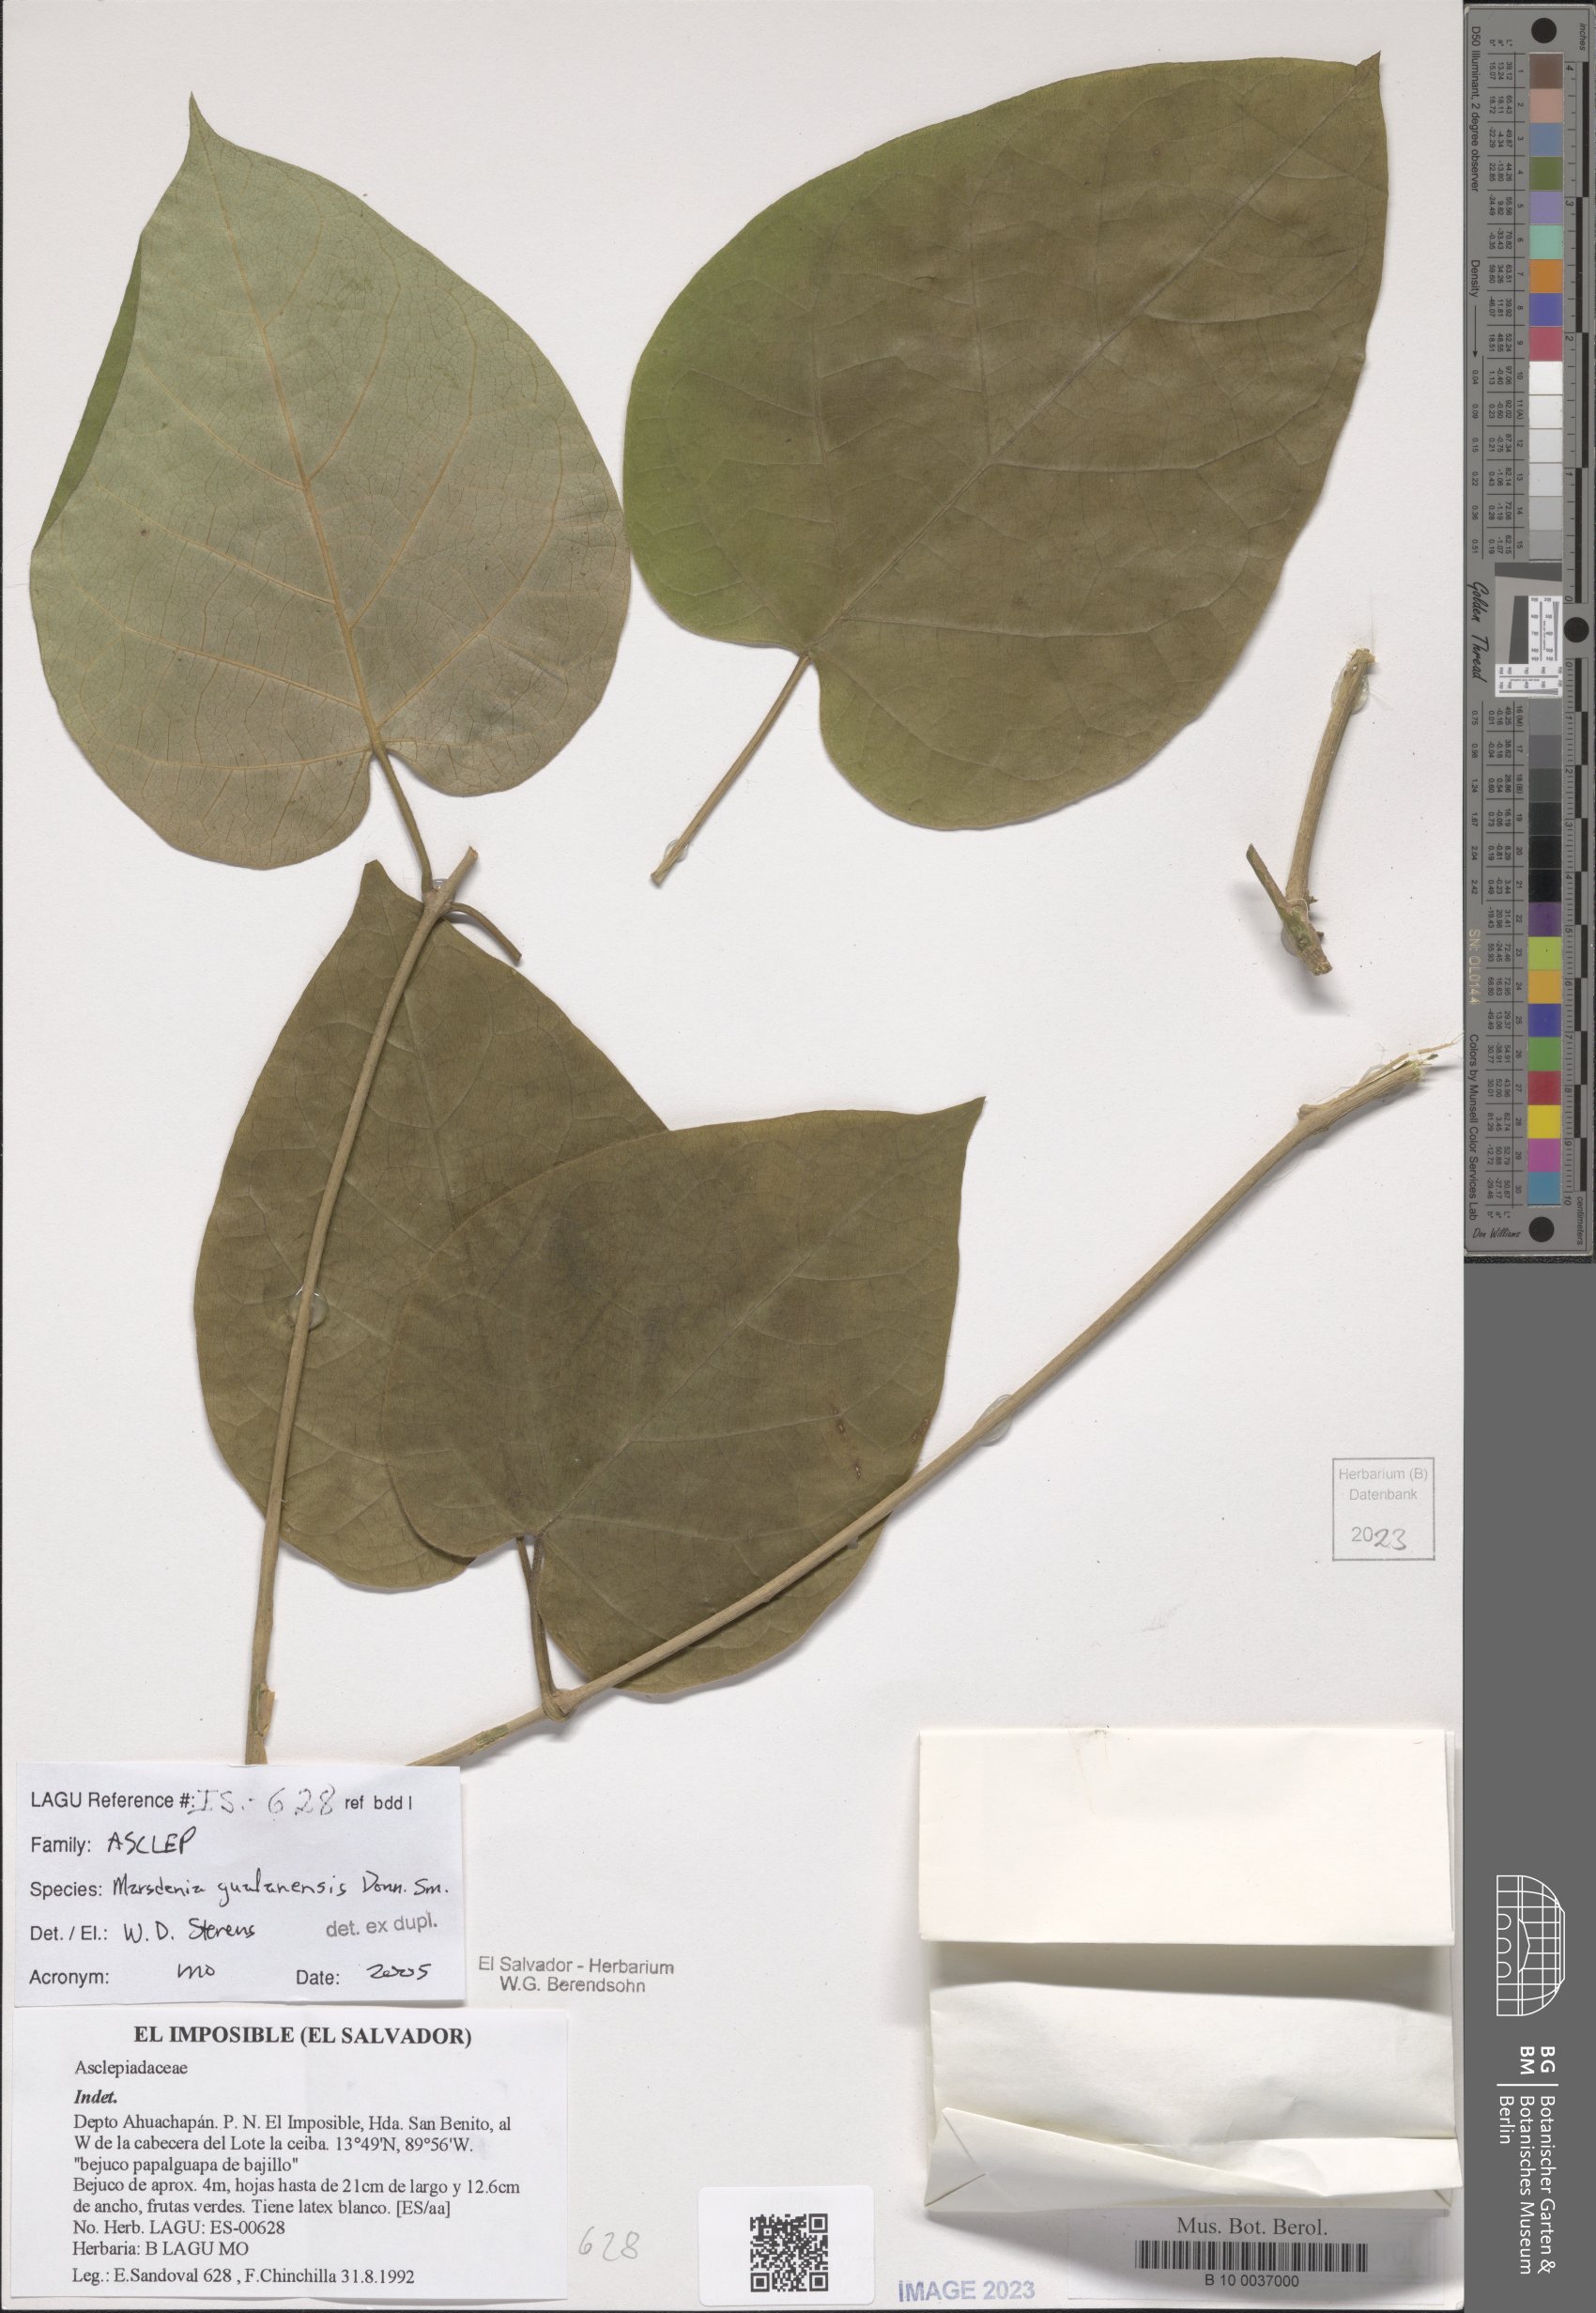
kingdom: Plantae
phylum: Tracheophyta
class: Magnoliopsida
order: Gentianales
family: Apocynaceae
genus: Ruehssia
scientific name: Ruehssia gualanensis
